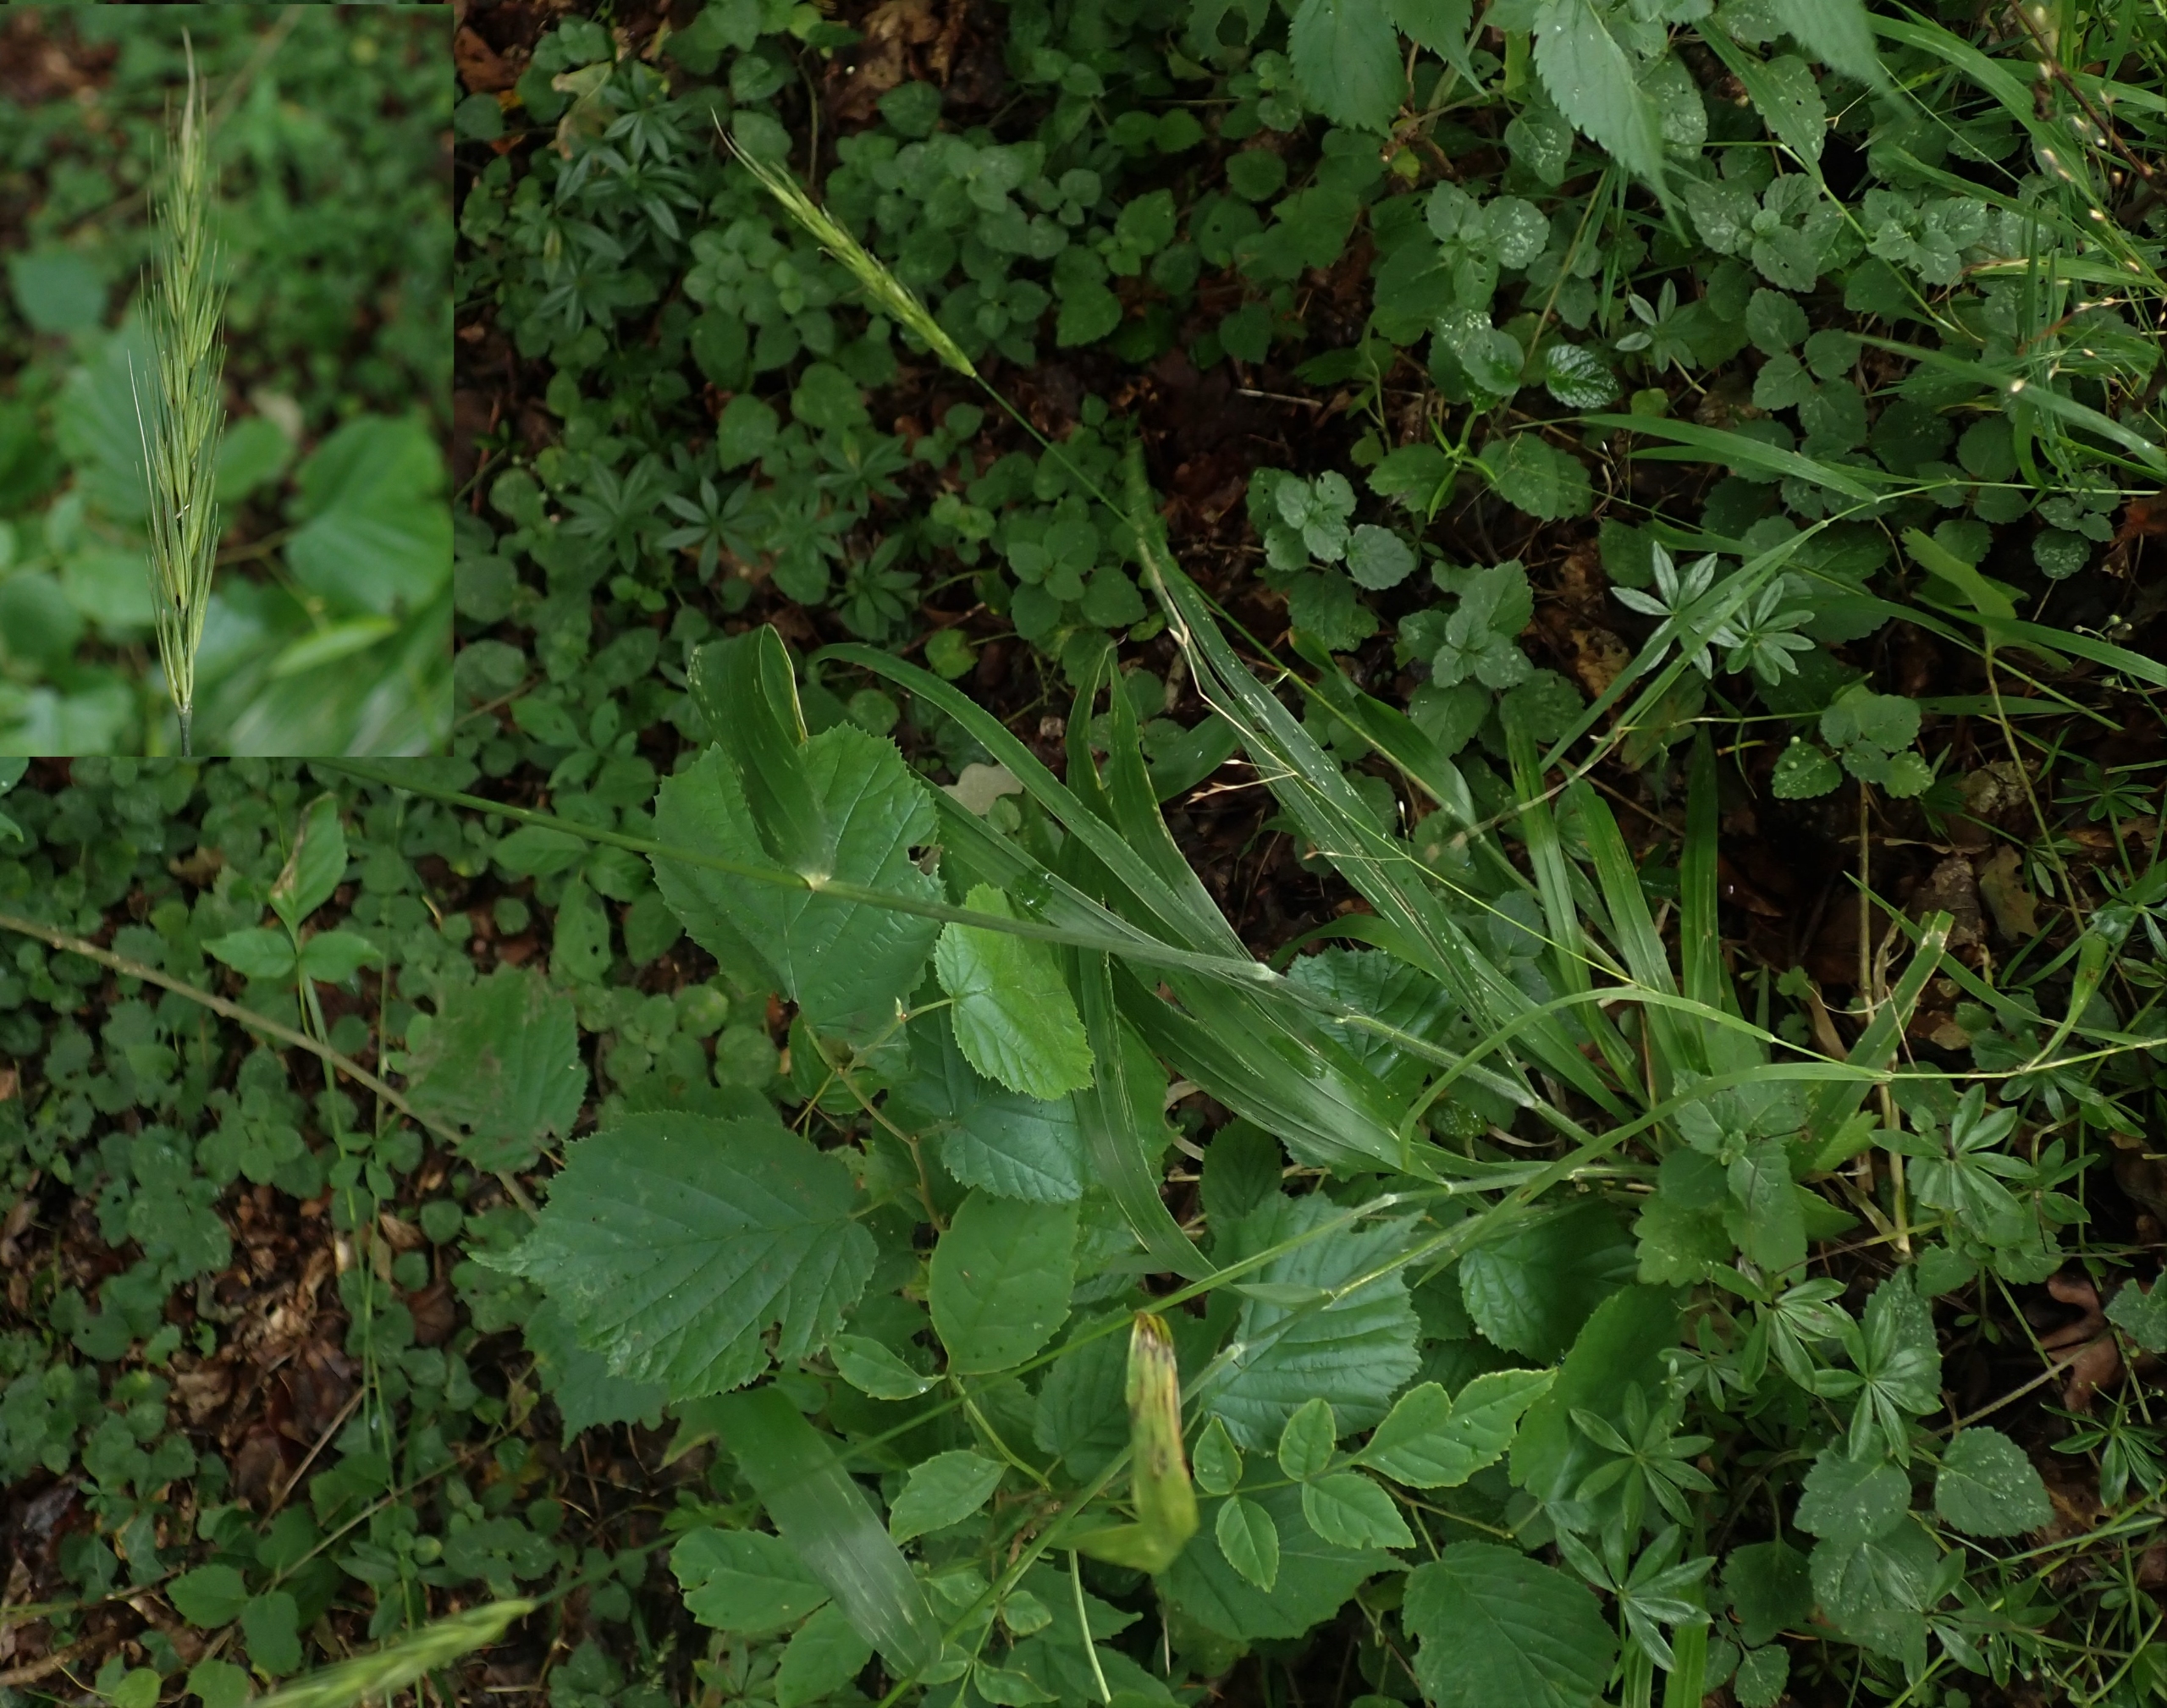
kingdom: Plantae
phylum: Tracheophyta
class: Liliopsida
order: Poales
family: Poaceae
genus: Hordelymus
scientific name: Hordelymus europaeus
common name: Skovbyg
